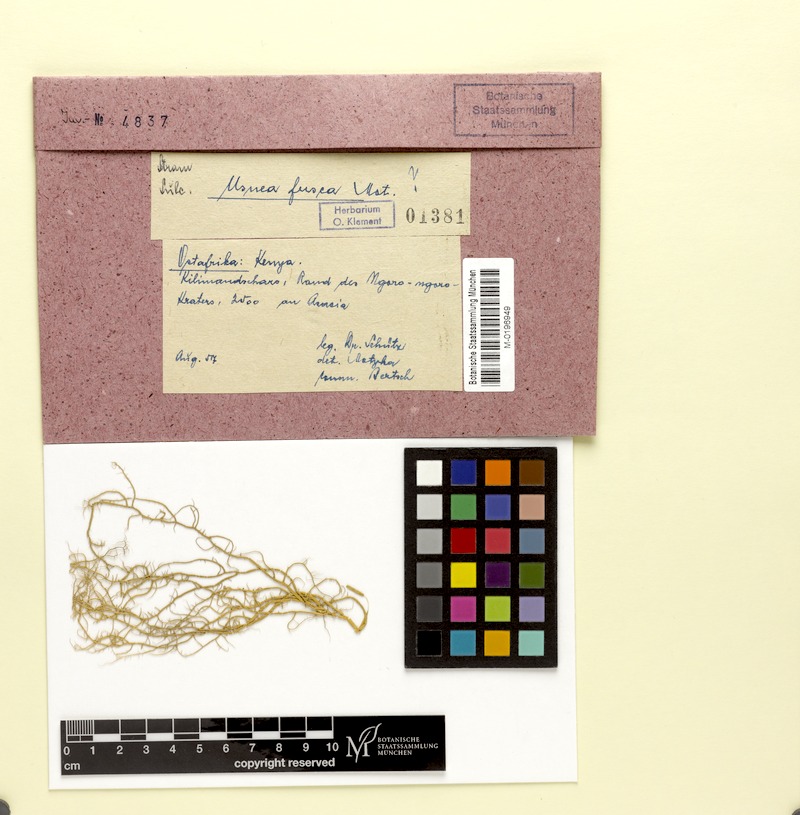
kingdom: Fungi
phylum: Ascomycota
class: Lecanoromycetes
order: Lecanorales
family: Parmeliaceae
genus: Usnea
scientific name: Usnea fusca
